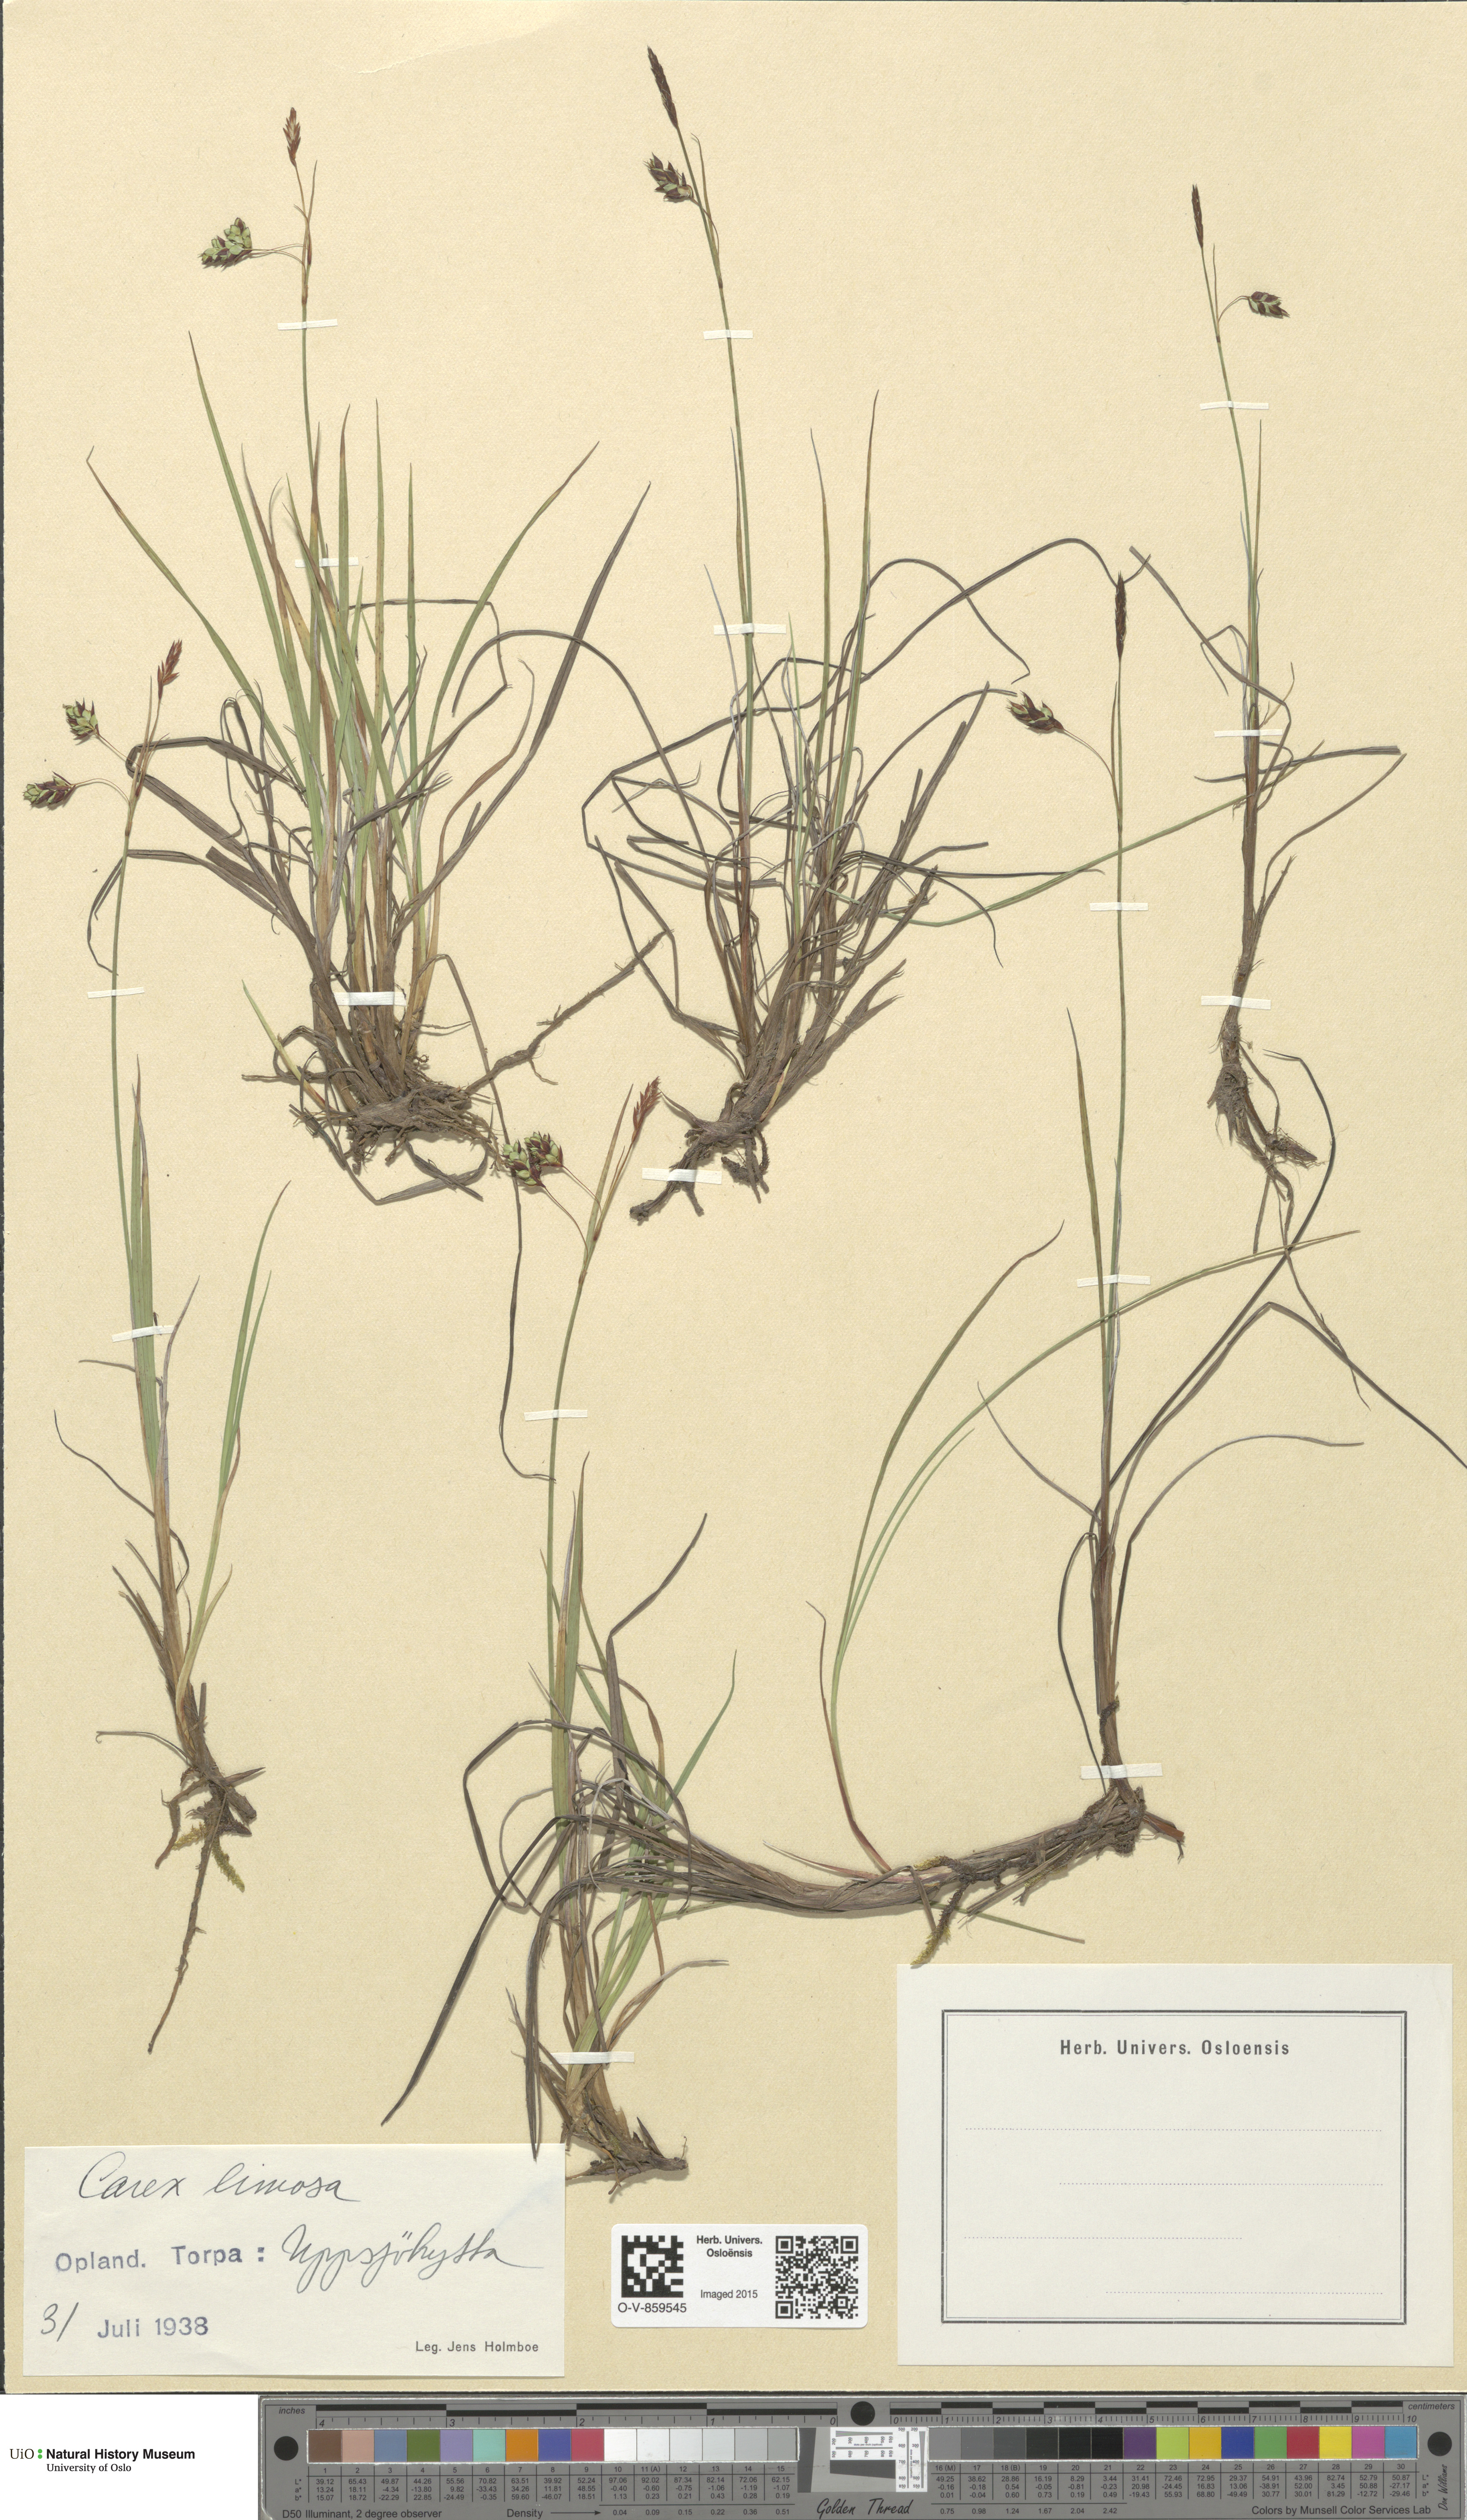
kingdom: Plantae
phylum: Tracheophyta
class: Liliopsida
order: Poales
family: Cyperaceae
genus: Carex
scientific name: Carex limosa
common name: Bog sedge
